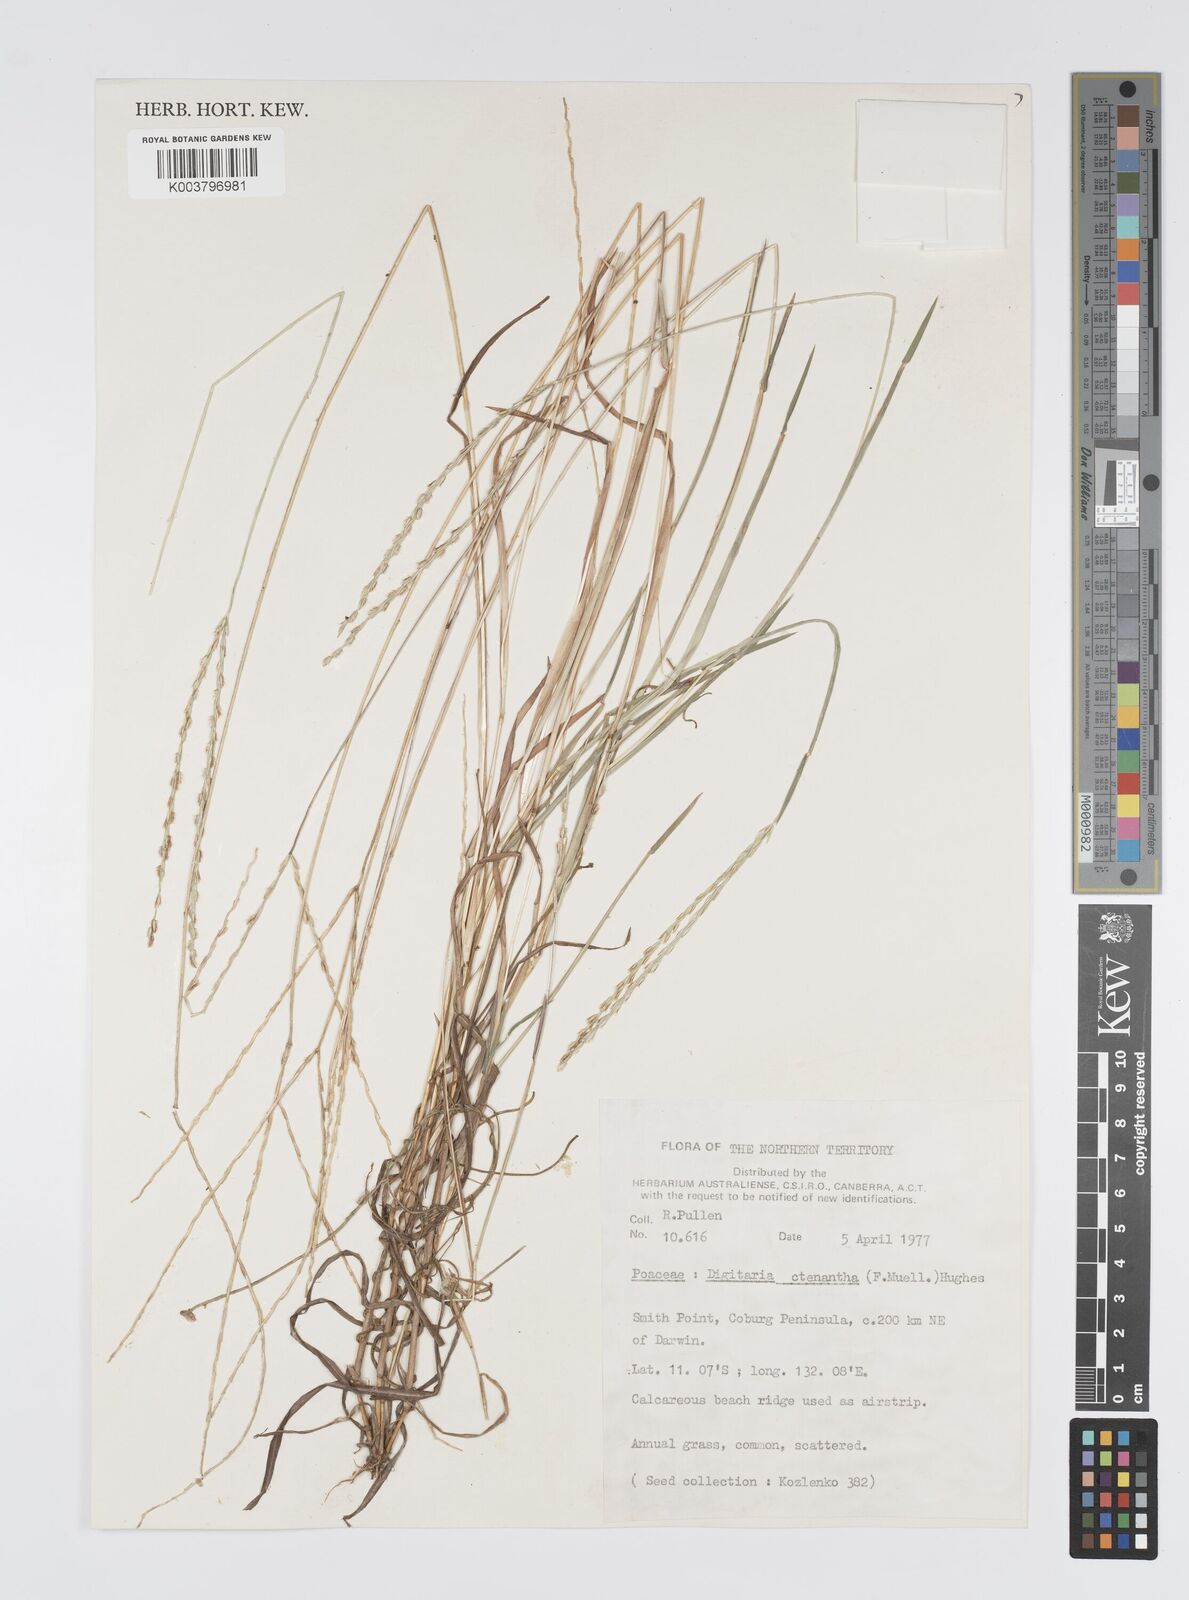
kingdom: Plantae
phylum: Tracheophyta
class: Liliopsida
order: Poales
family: Poaceae
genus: Digitaria
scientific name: Digitaria ctenantha
